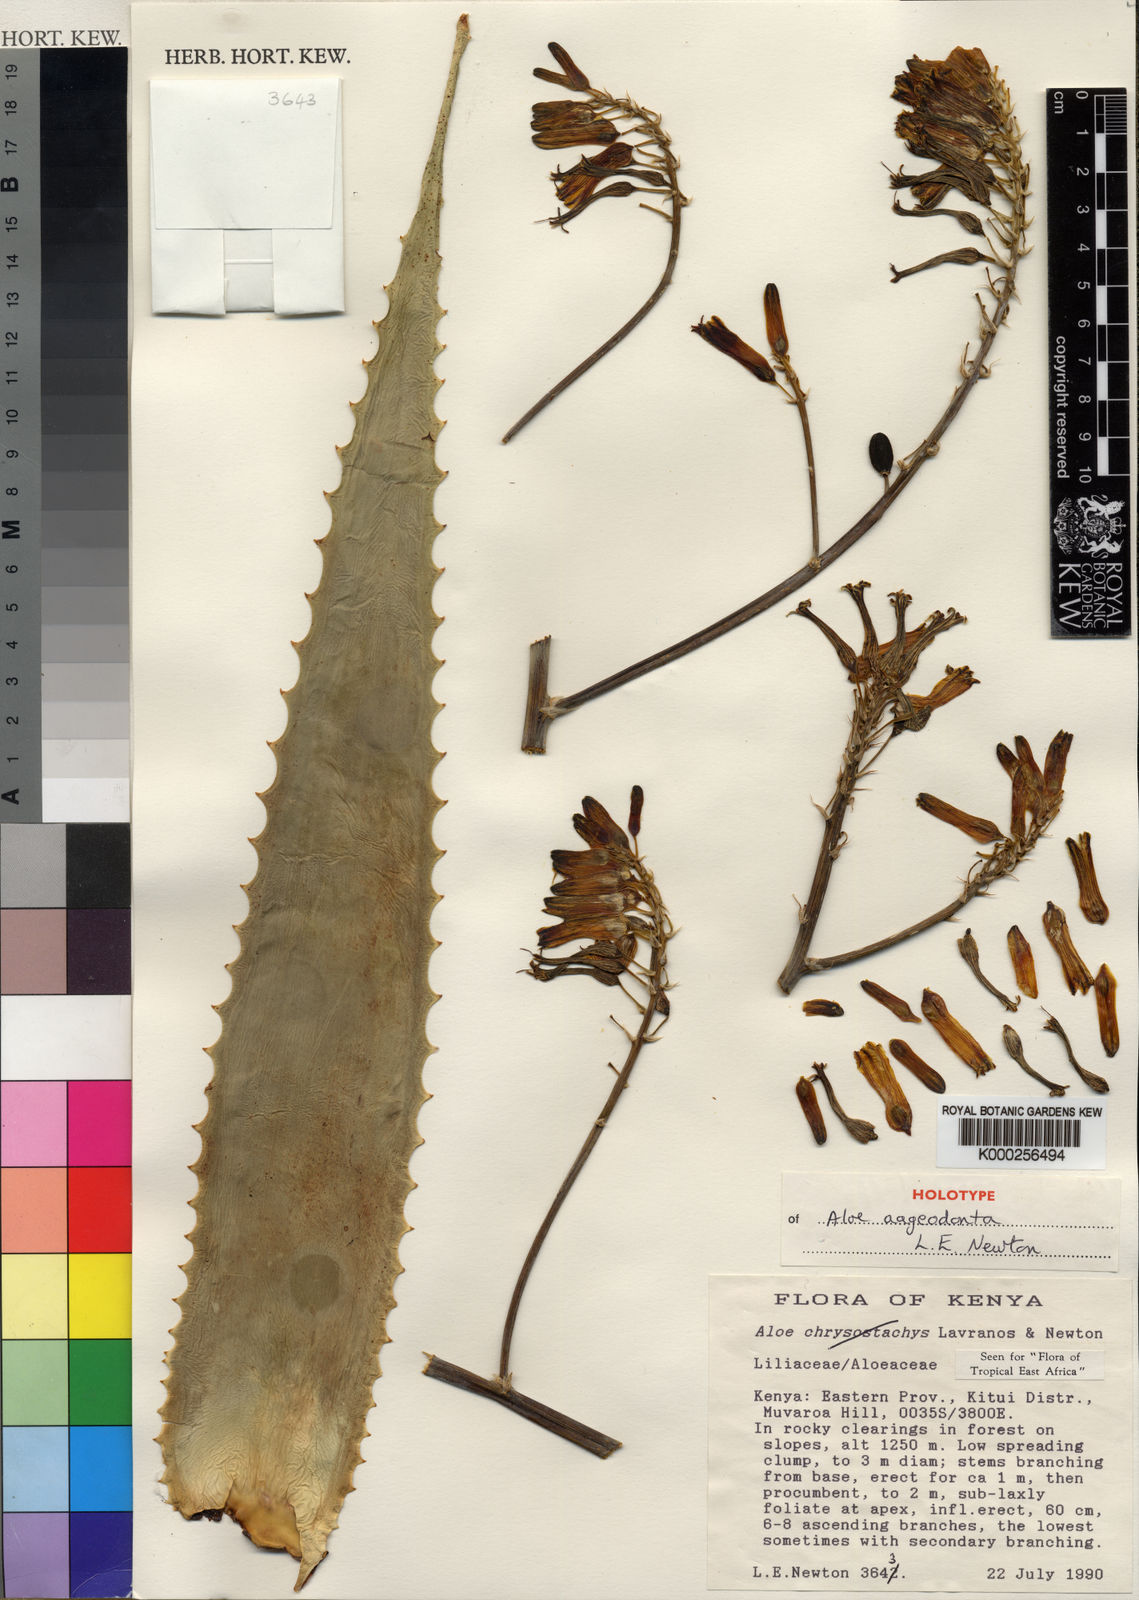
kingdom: Plantae
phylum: Tracheophyta
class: Liliopsida
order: Asparagales
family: Asphodelaceae
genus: Aloe
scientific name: Aloe aageodonta
